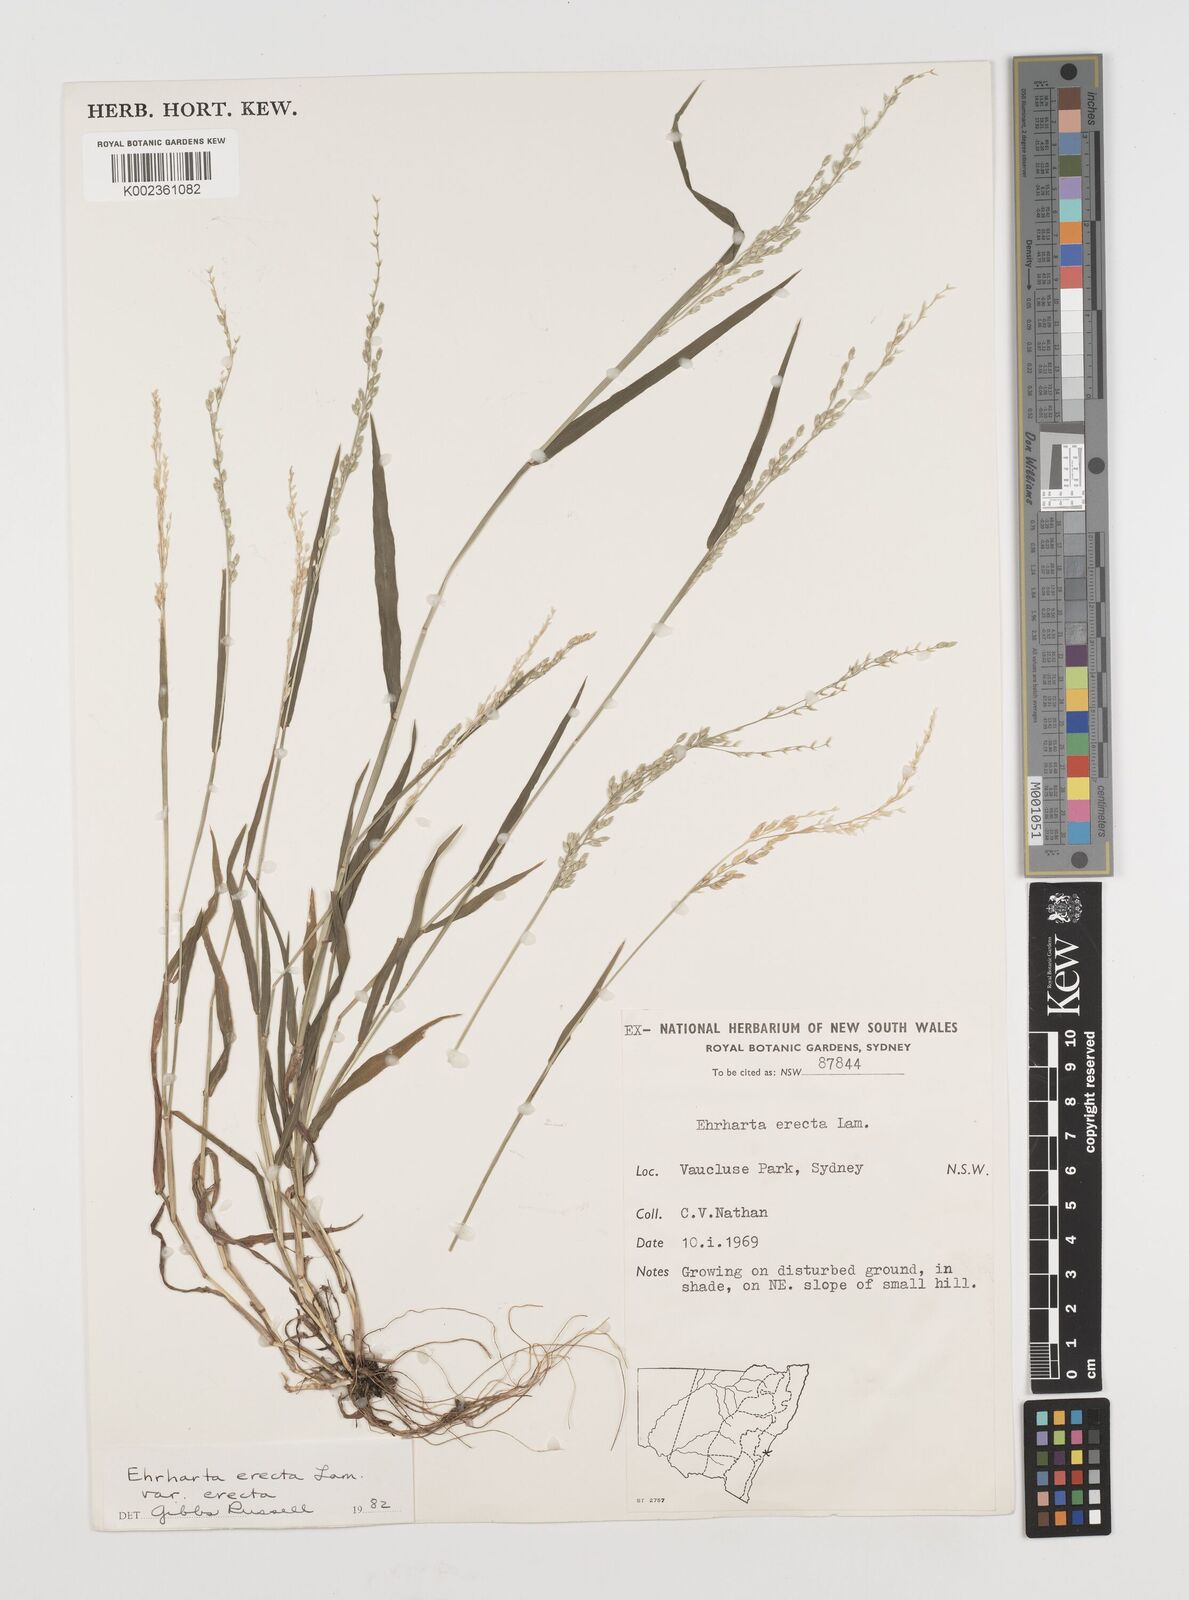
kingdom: Plantae
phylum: Tracheophyta
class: Liliopsida
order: Poales
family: Poaceae
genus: Ehrharta
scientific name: Ehrharta erecta
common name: Panic veldtgrass
